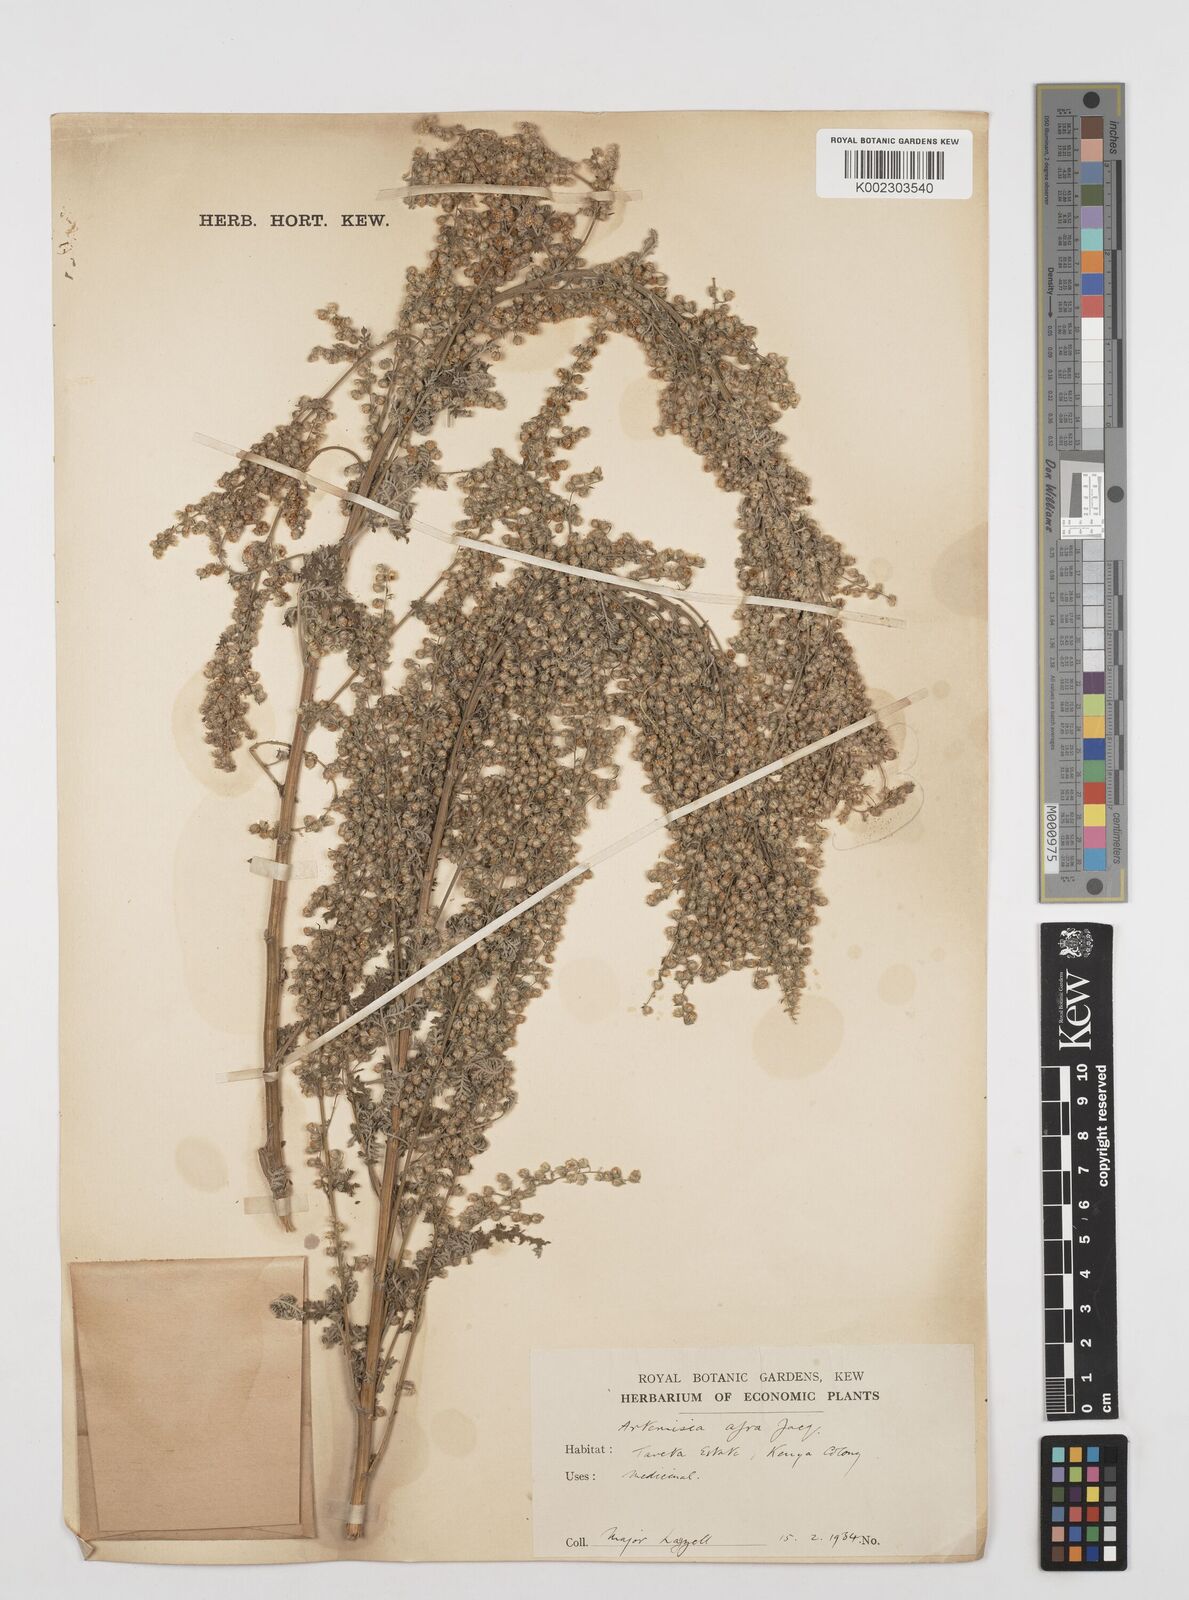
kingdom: Plantae
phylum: Tracheophyta
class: Magnoliopsida
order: Asterales
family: Asteraceae
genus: Artemisia
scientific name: Artemisia afra
